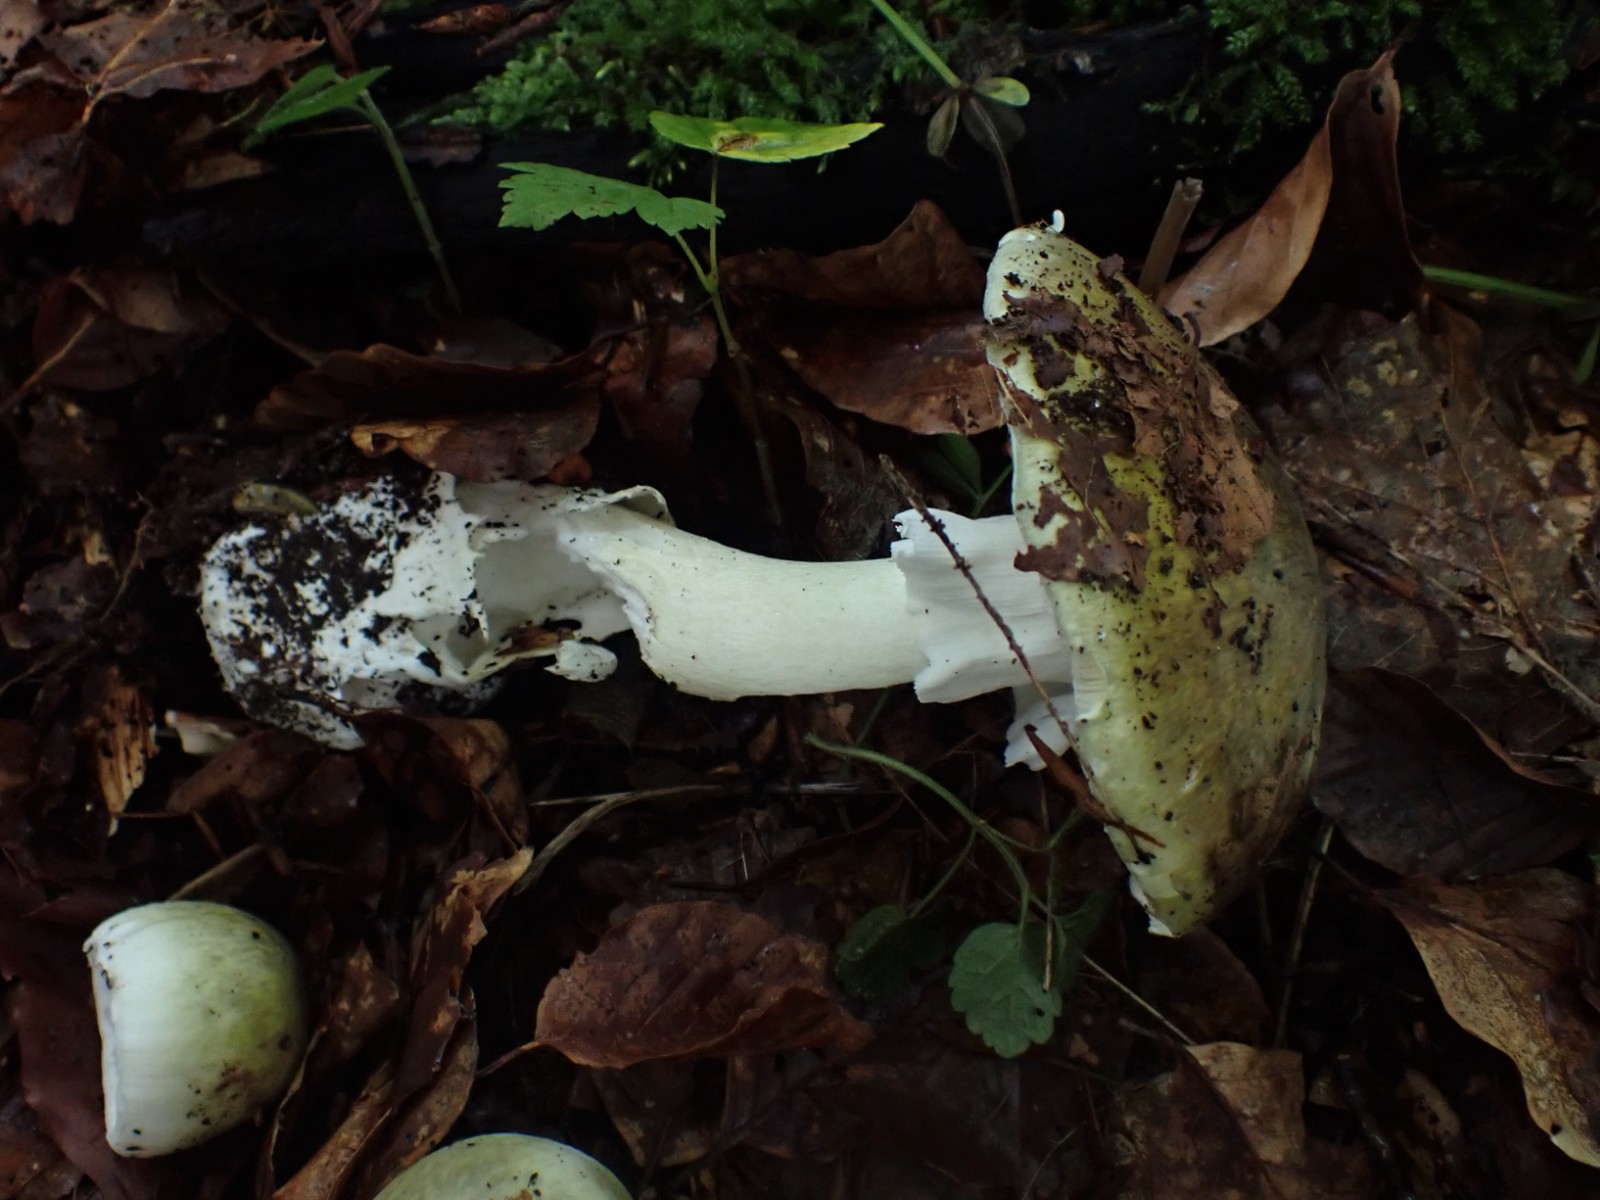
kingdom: Fungi
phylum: Basidiomycota
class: Agaricomycetes
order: Agaricales
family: Amanitaceae
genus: Amanita
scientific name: Amanita phalloides
